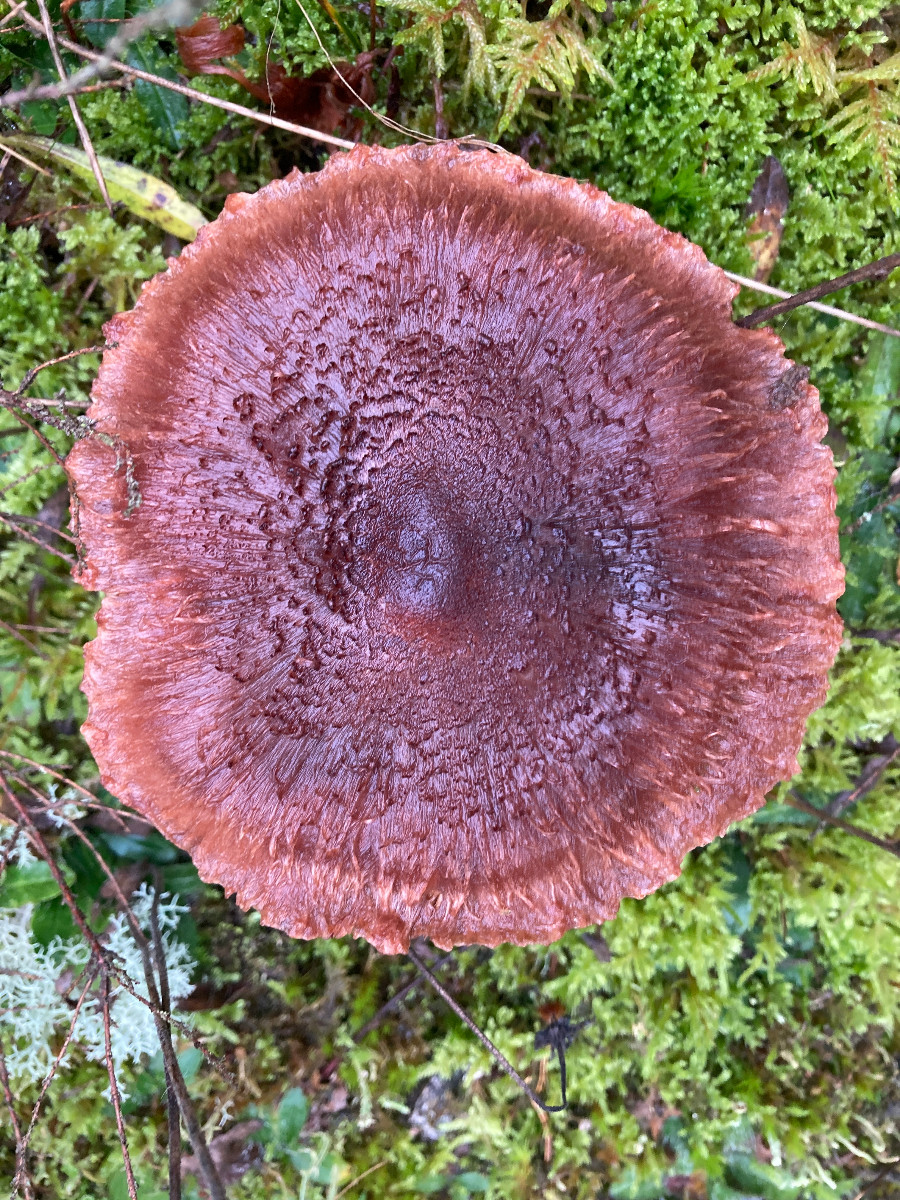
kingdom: Fungi
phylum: Basidiomycota
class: Agaricomycetes
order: Agaricales
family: Tricholomataceae
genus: Tricholoma
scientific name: Tricholoma vaccinum
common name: ko-ridderhat
